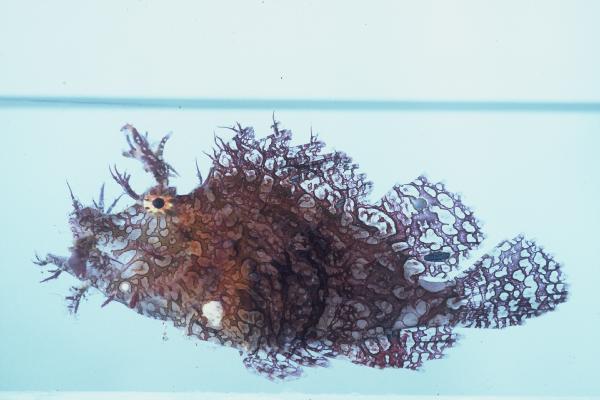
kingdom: Animalia
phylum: Chordata
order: Scorpaeniformes
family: Scorpaenidae
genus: Rhinopias
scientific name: Rhinopias frondosa
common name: Weedy scorpionfish
